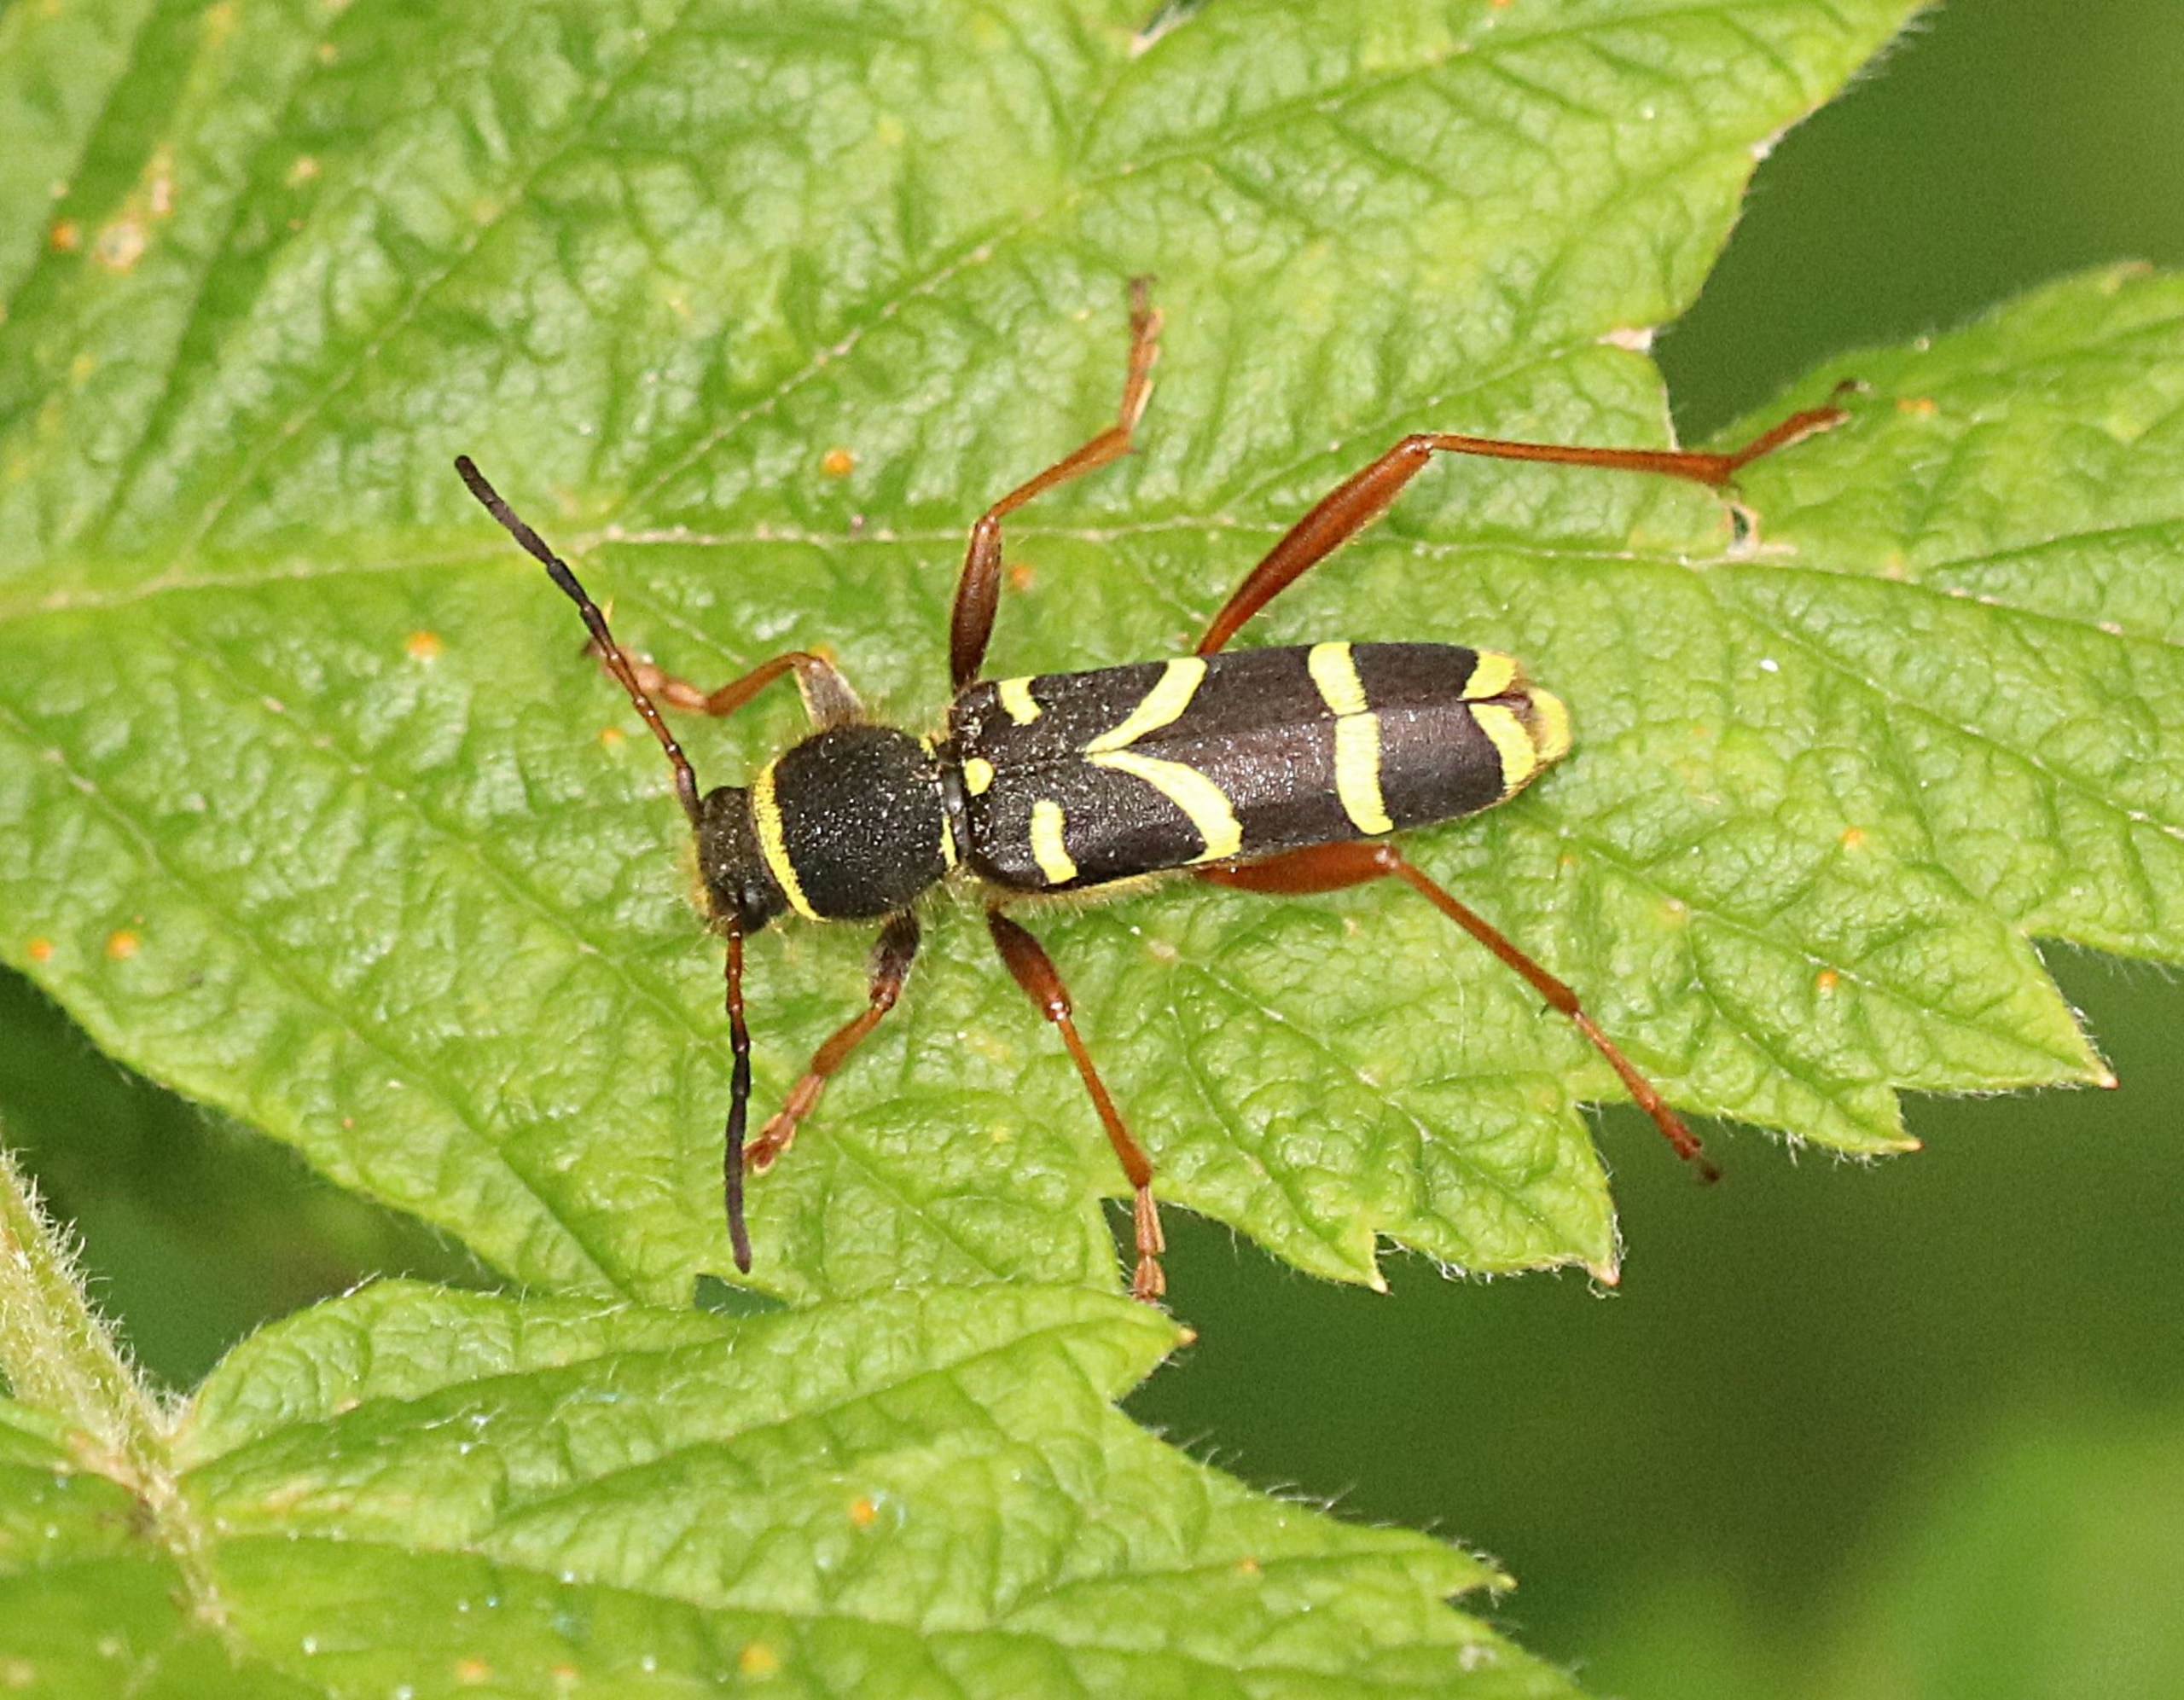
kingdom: Animalia
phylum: Arthropoda
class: Insecta
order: Coleoptera
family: Cerambycidae
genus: Clytus
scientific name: Clytus arietis
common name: Lille hvepsebuk
